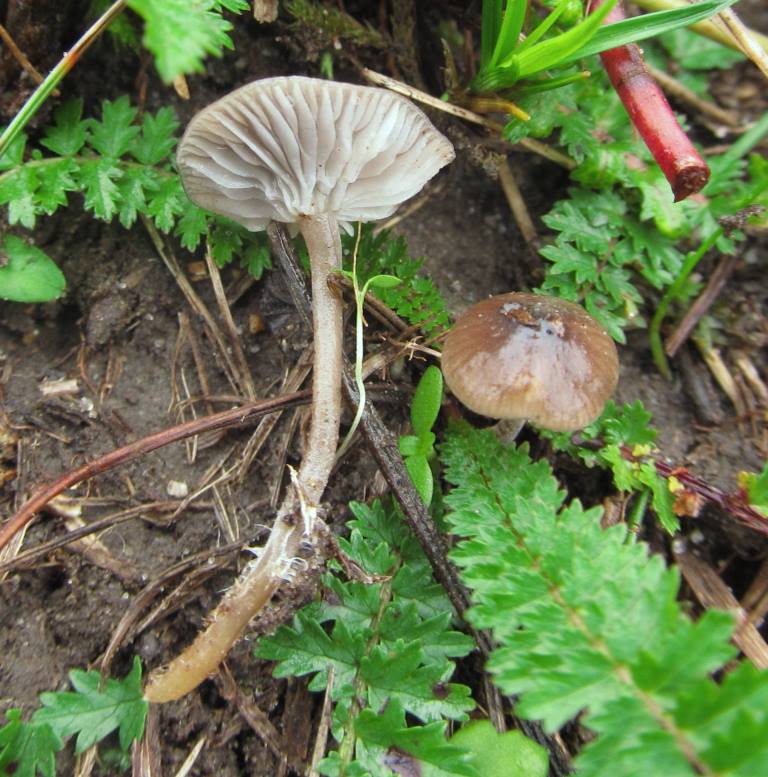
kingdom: Fungi
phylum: Basidiomycota
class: Agaricomycetes
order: Agaricales
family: Tricholomataceae
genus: Mycenella
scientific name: Mycenella salicina
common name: glatsporet dughat
